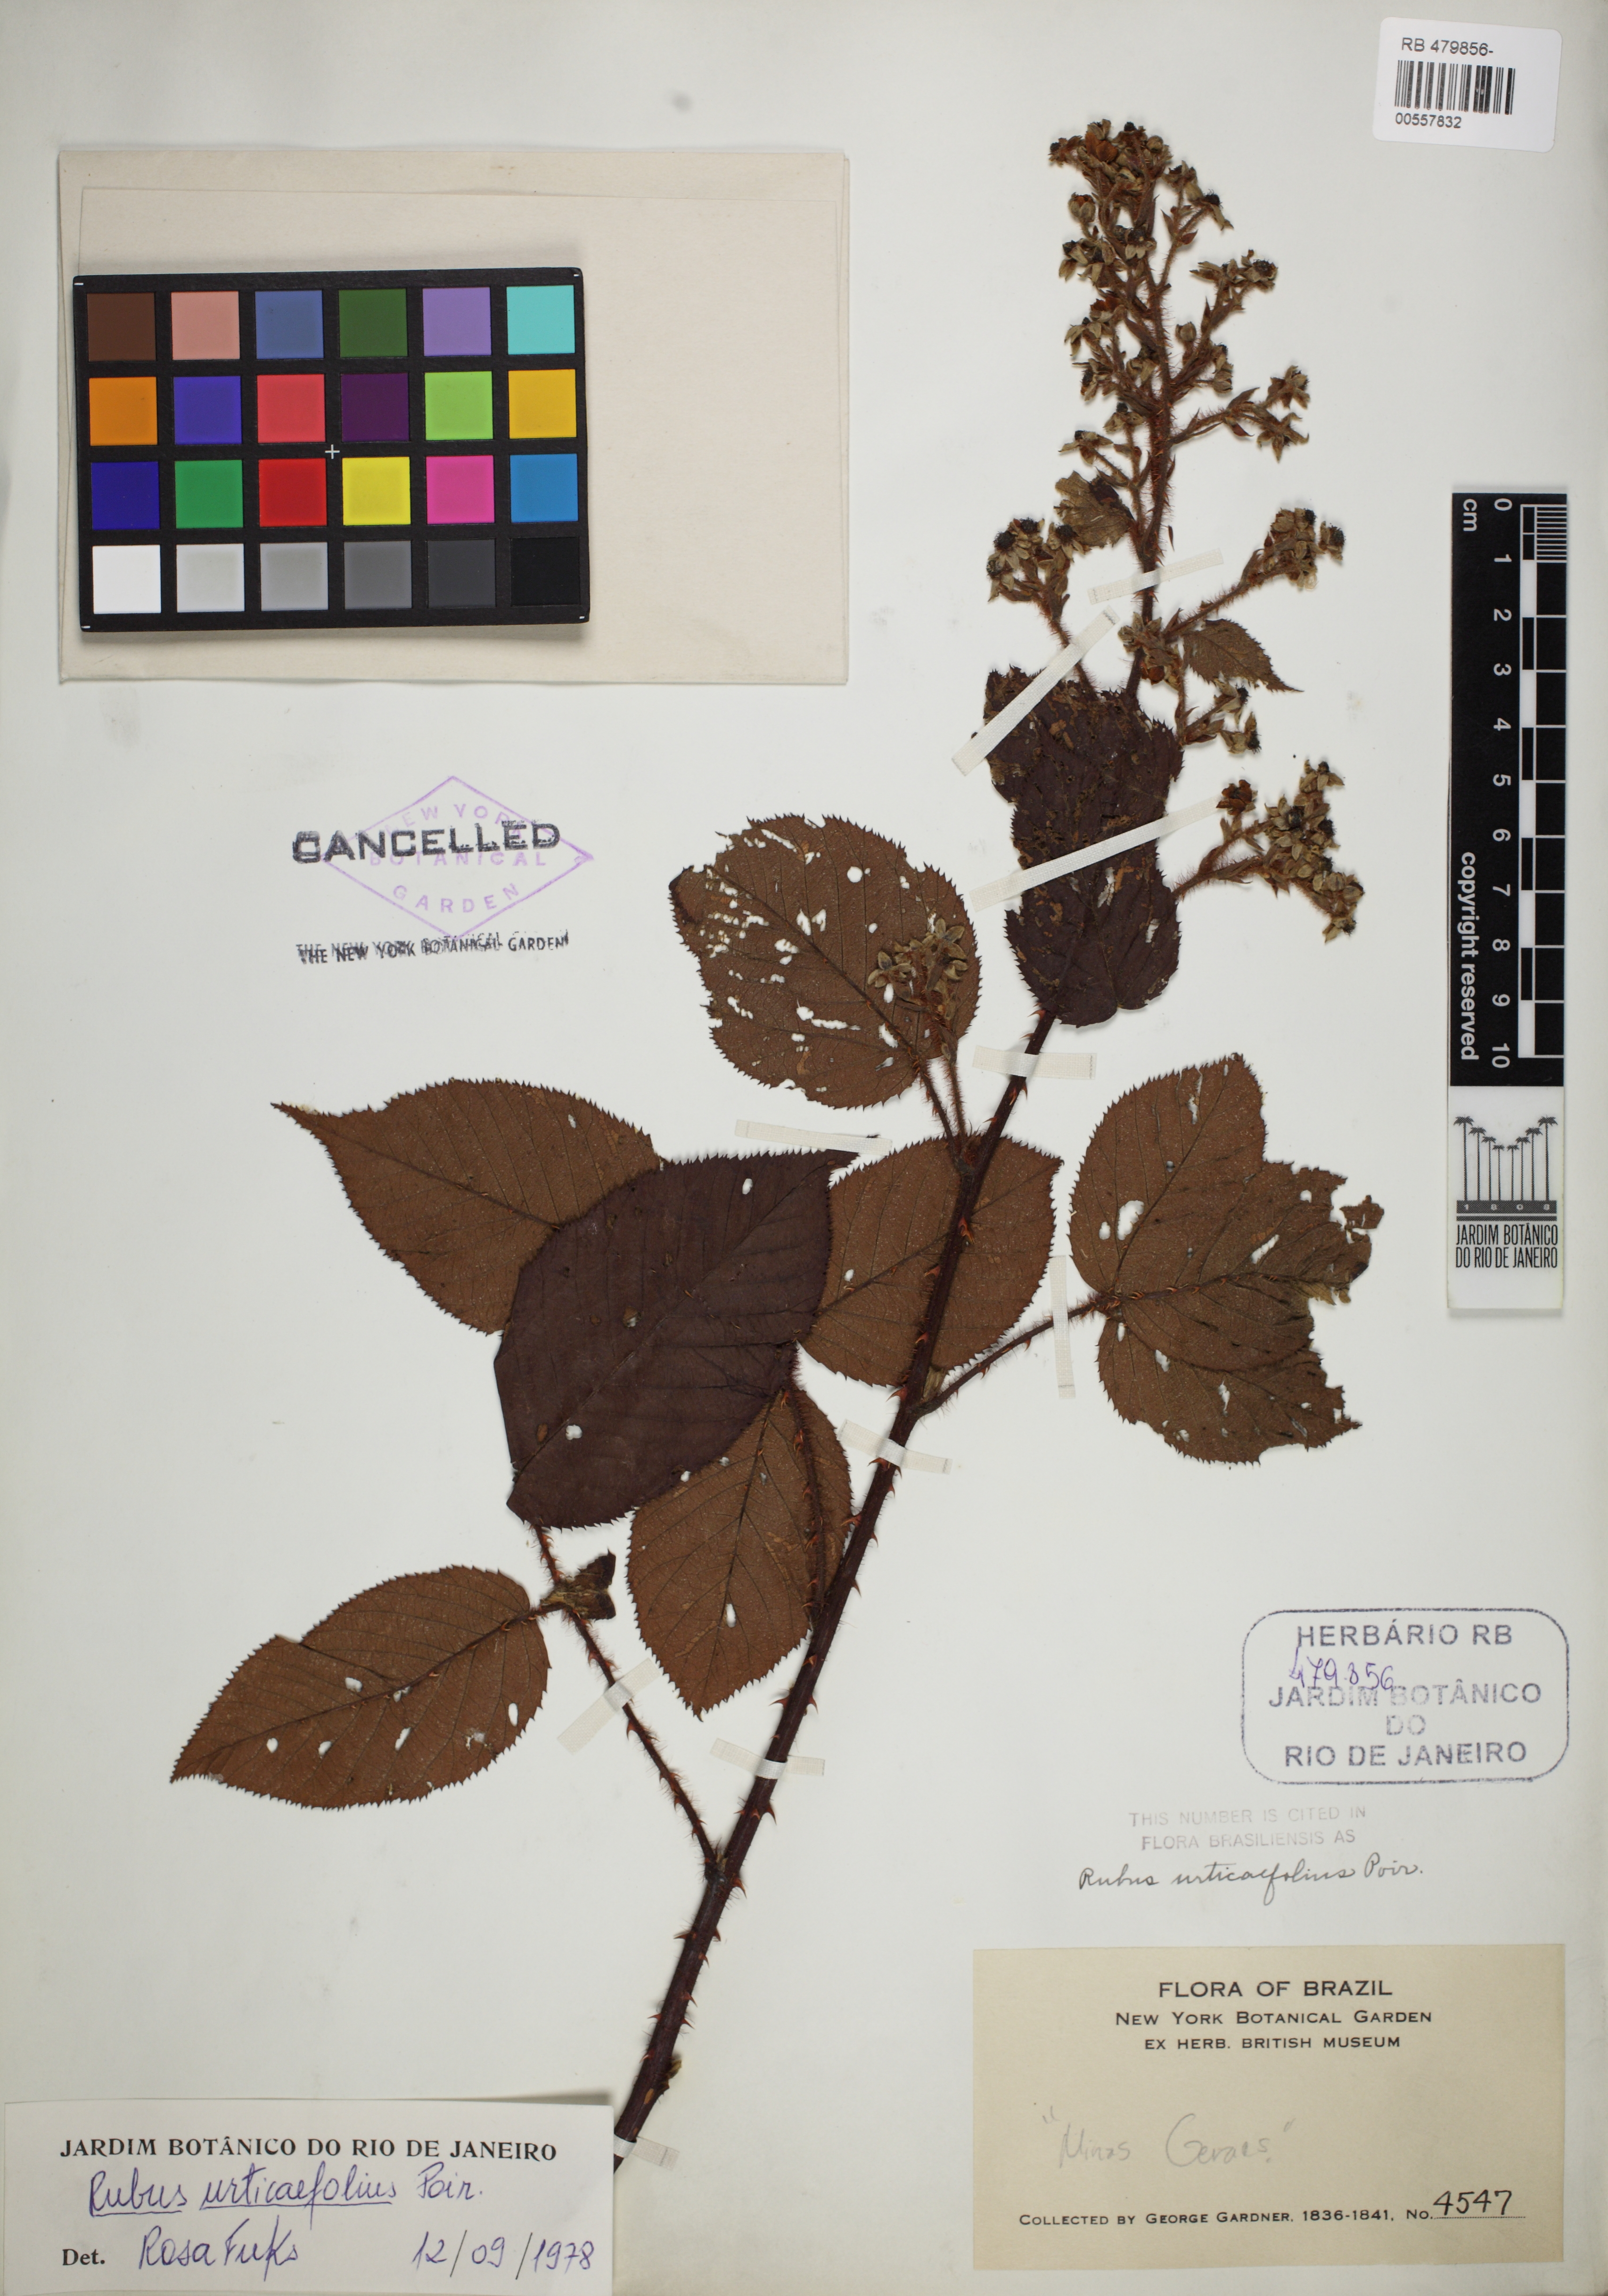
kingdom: Plantae
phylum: Tracheophyta
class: Magnoliopsida
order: Rosales
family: Rosaceae
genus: Rubus
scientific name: Rubus urticifolius
